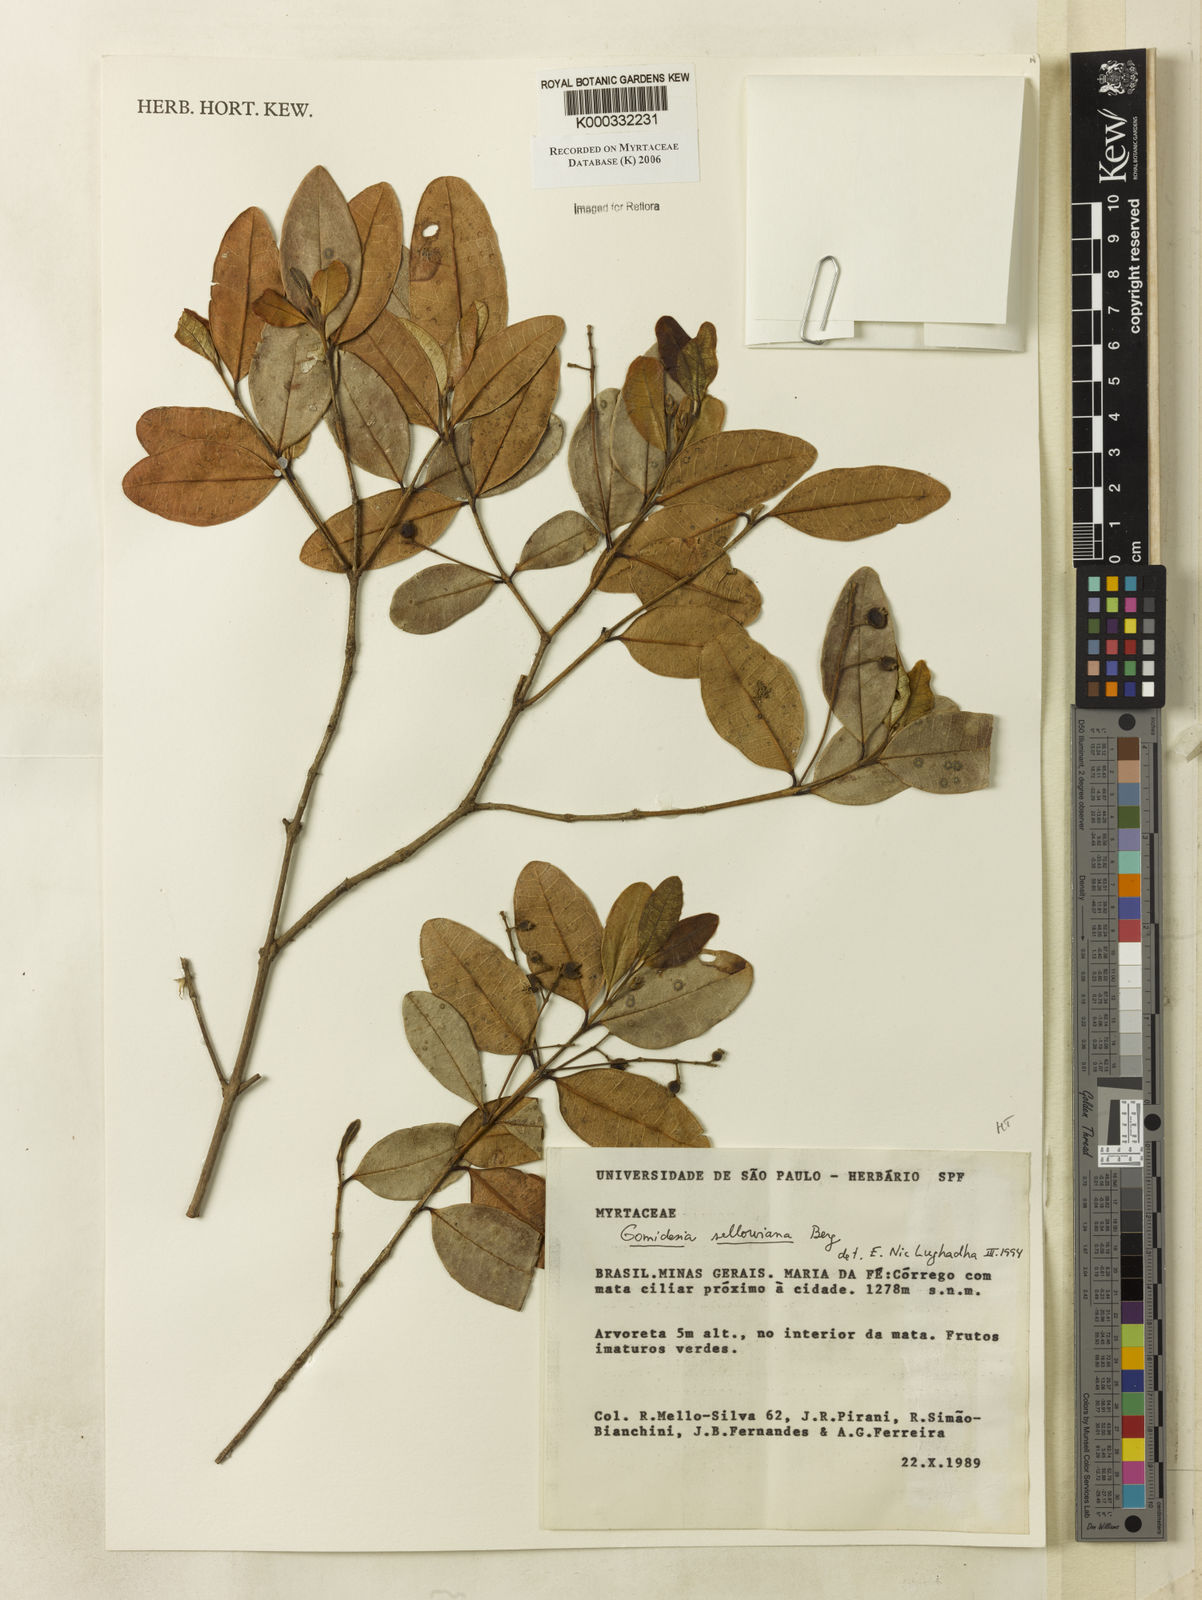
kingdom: Plantae
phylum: Tracheophyta
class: Magnoliopsida
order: Myrtales
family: Myrtaceae
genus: Myrcia
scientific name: Myrcia hartwegiana
